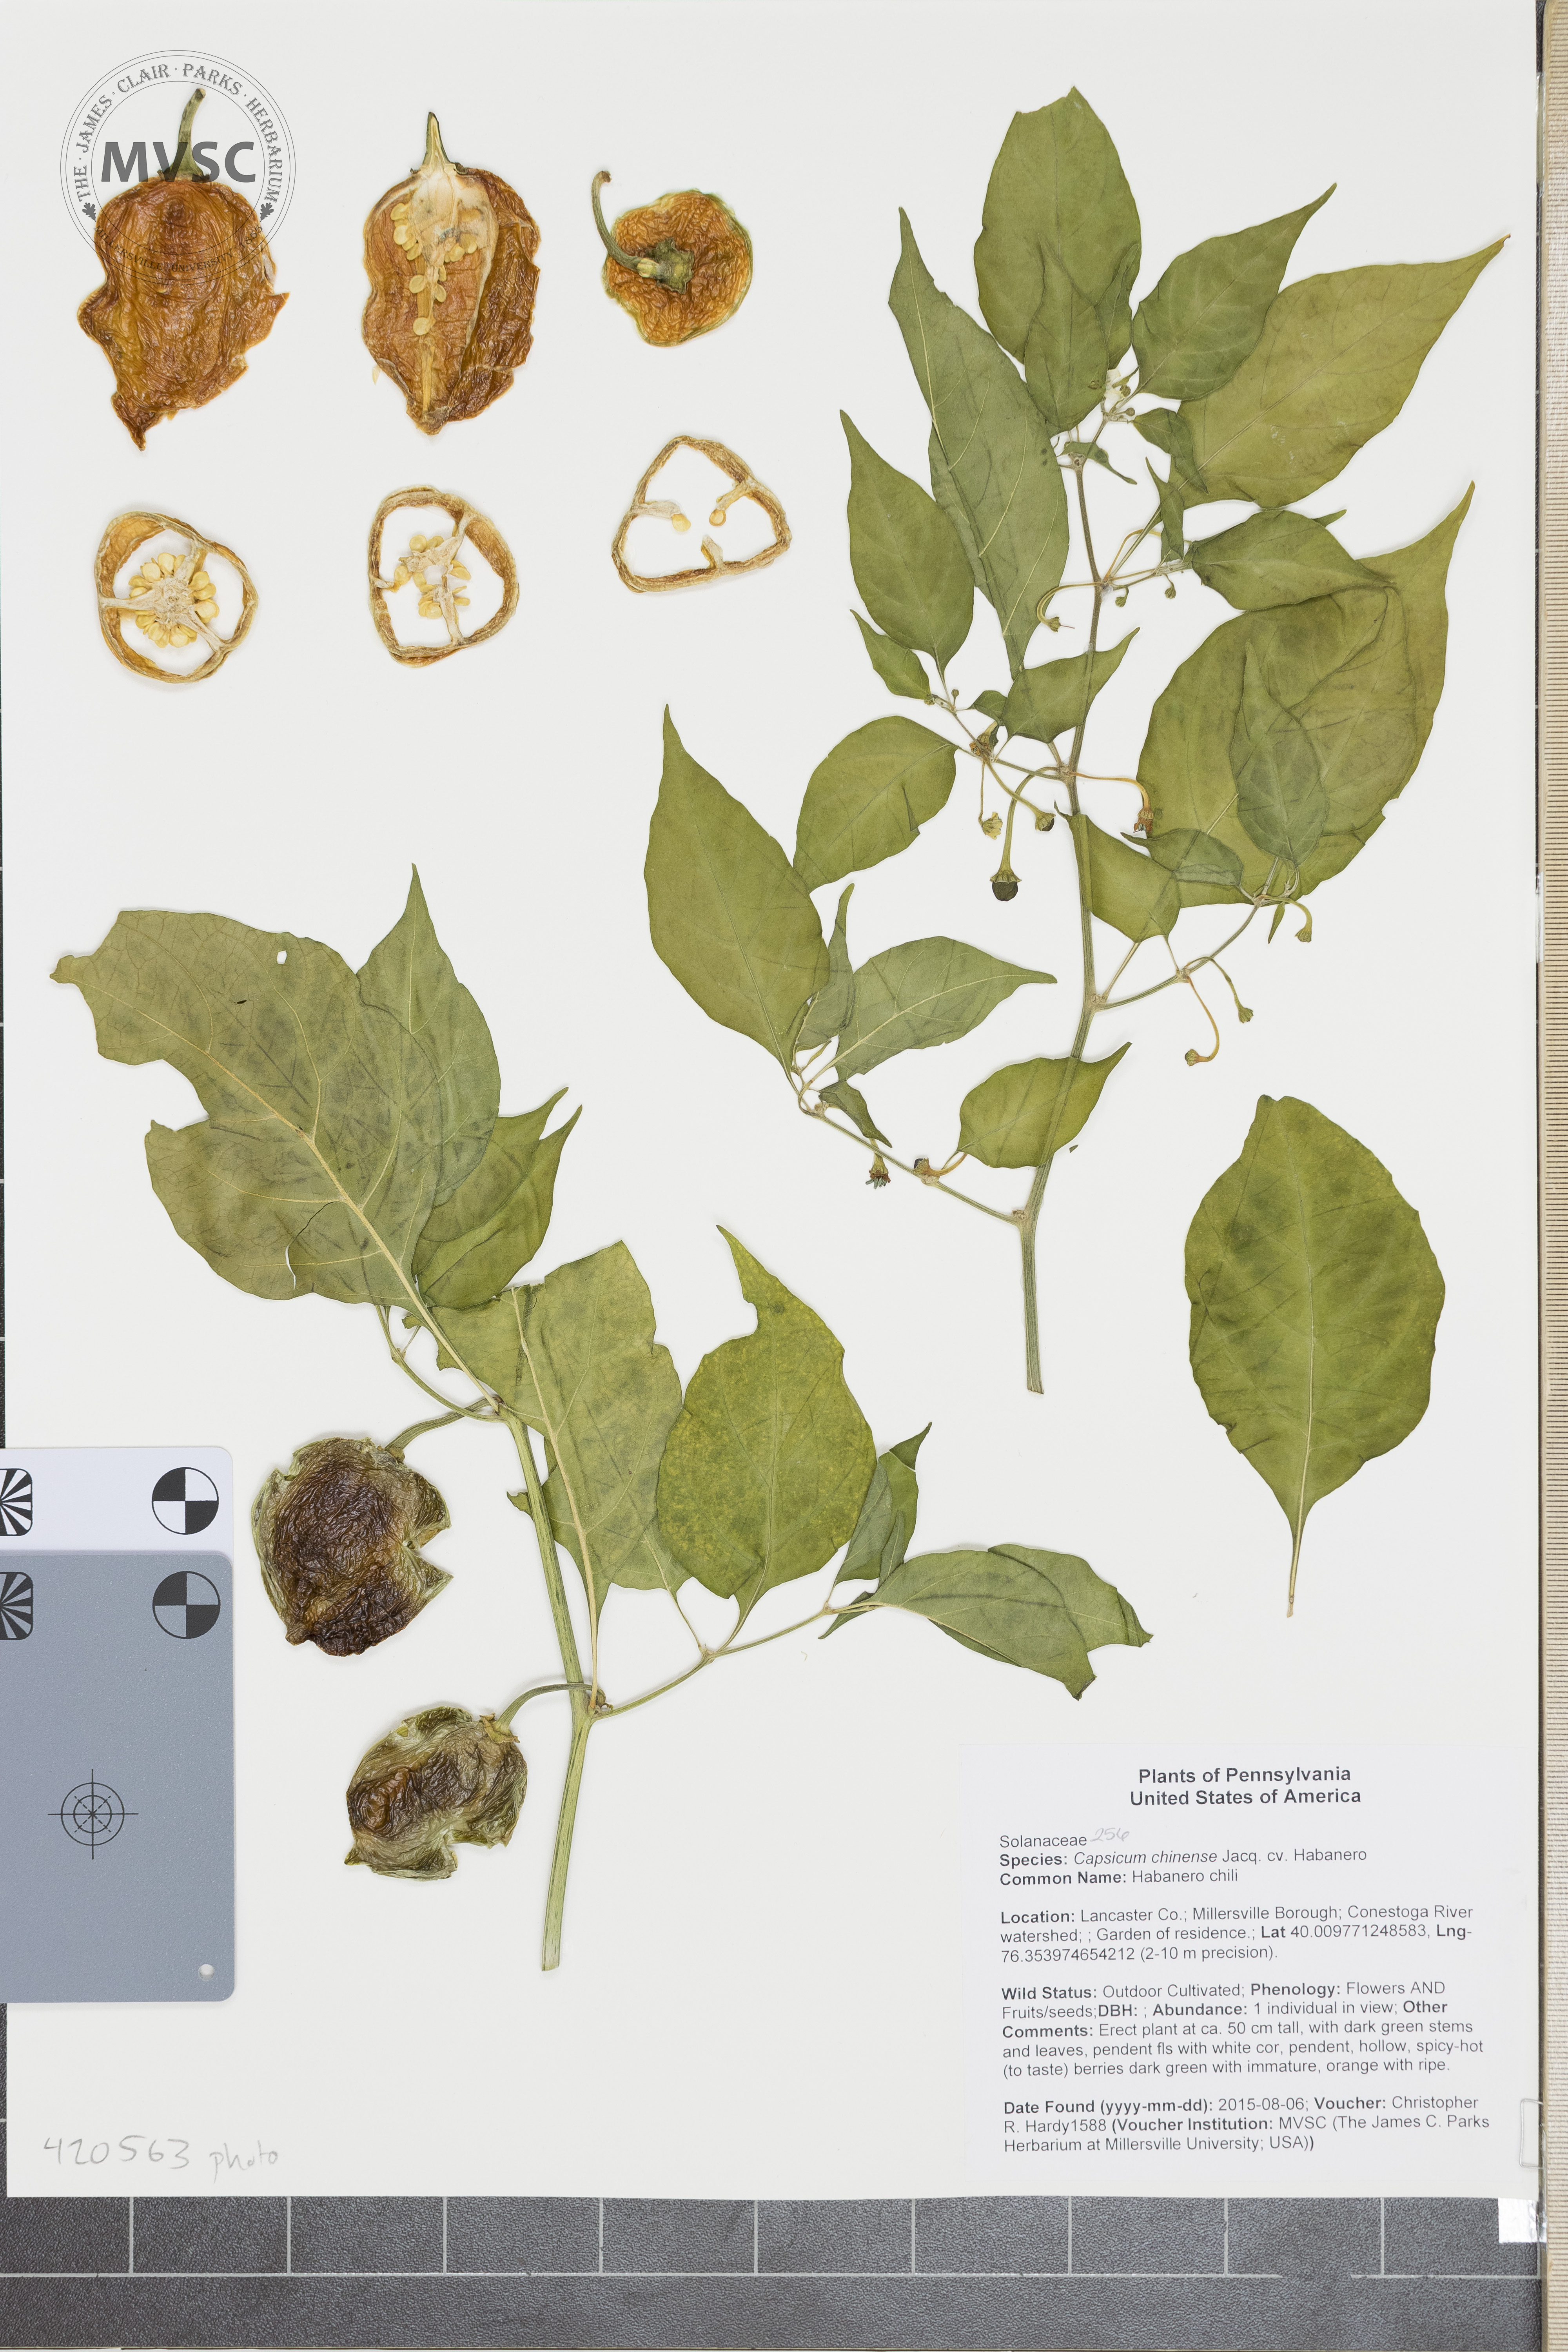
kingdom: Plantae
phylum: Tracheophyta
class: Magnoliopsida
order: Solanales
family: Solanaceae
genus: Capsicum
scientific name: Capsicum chinense
